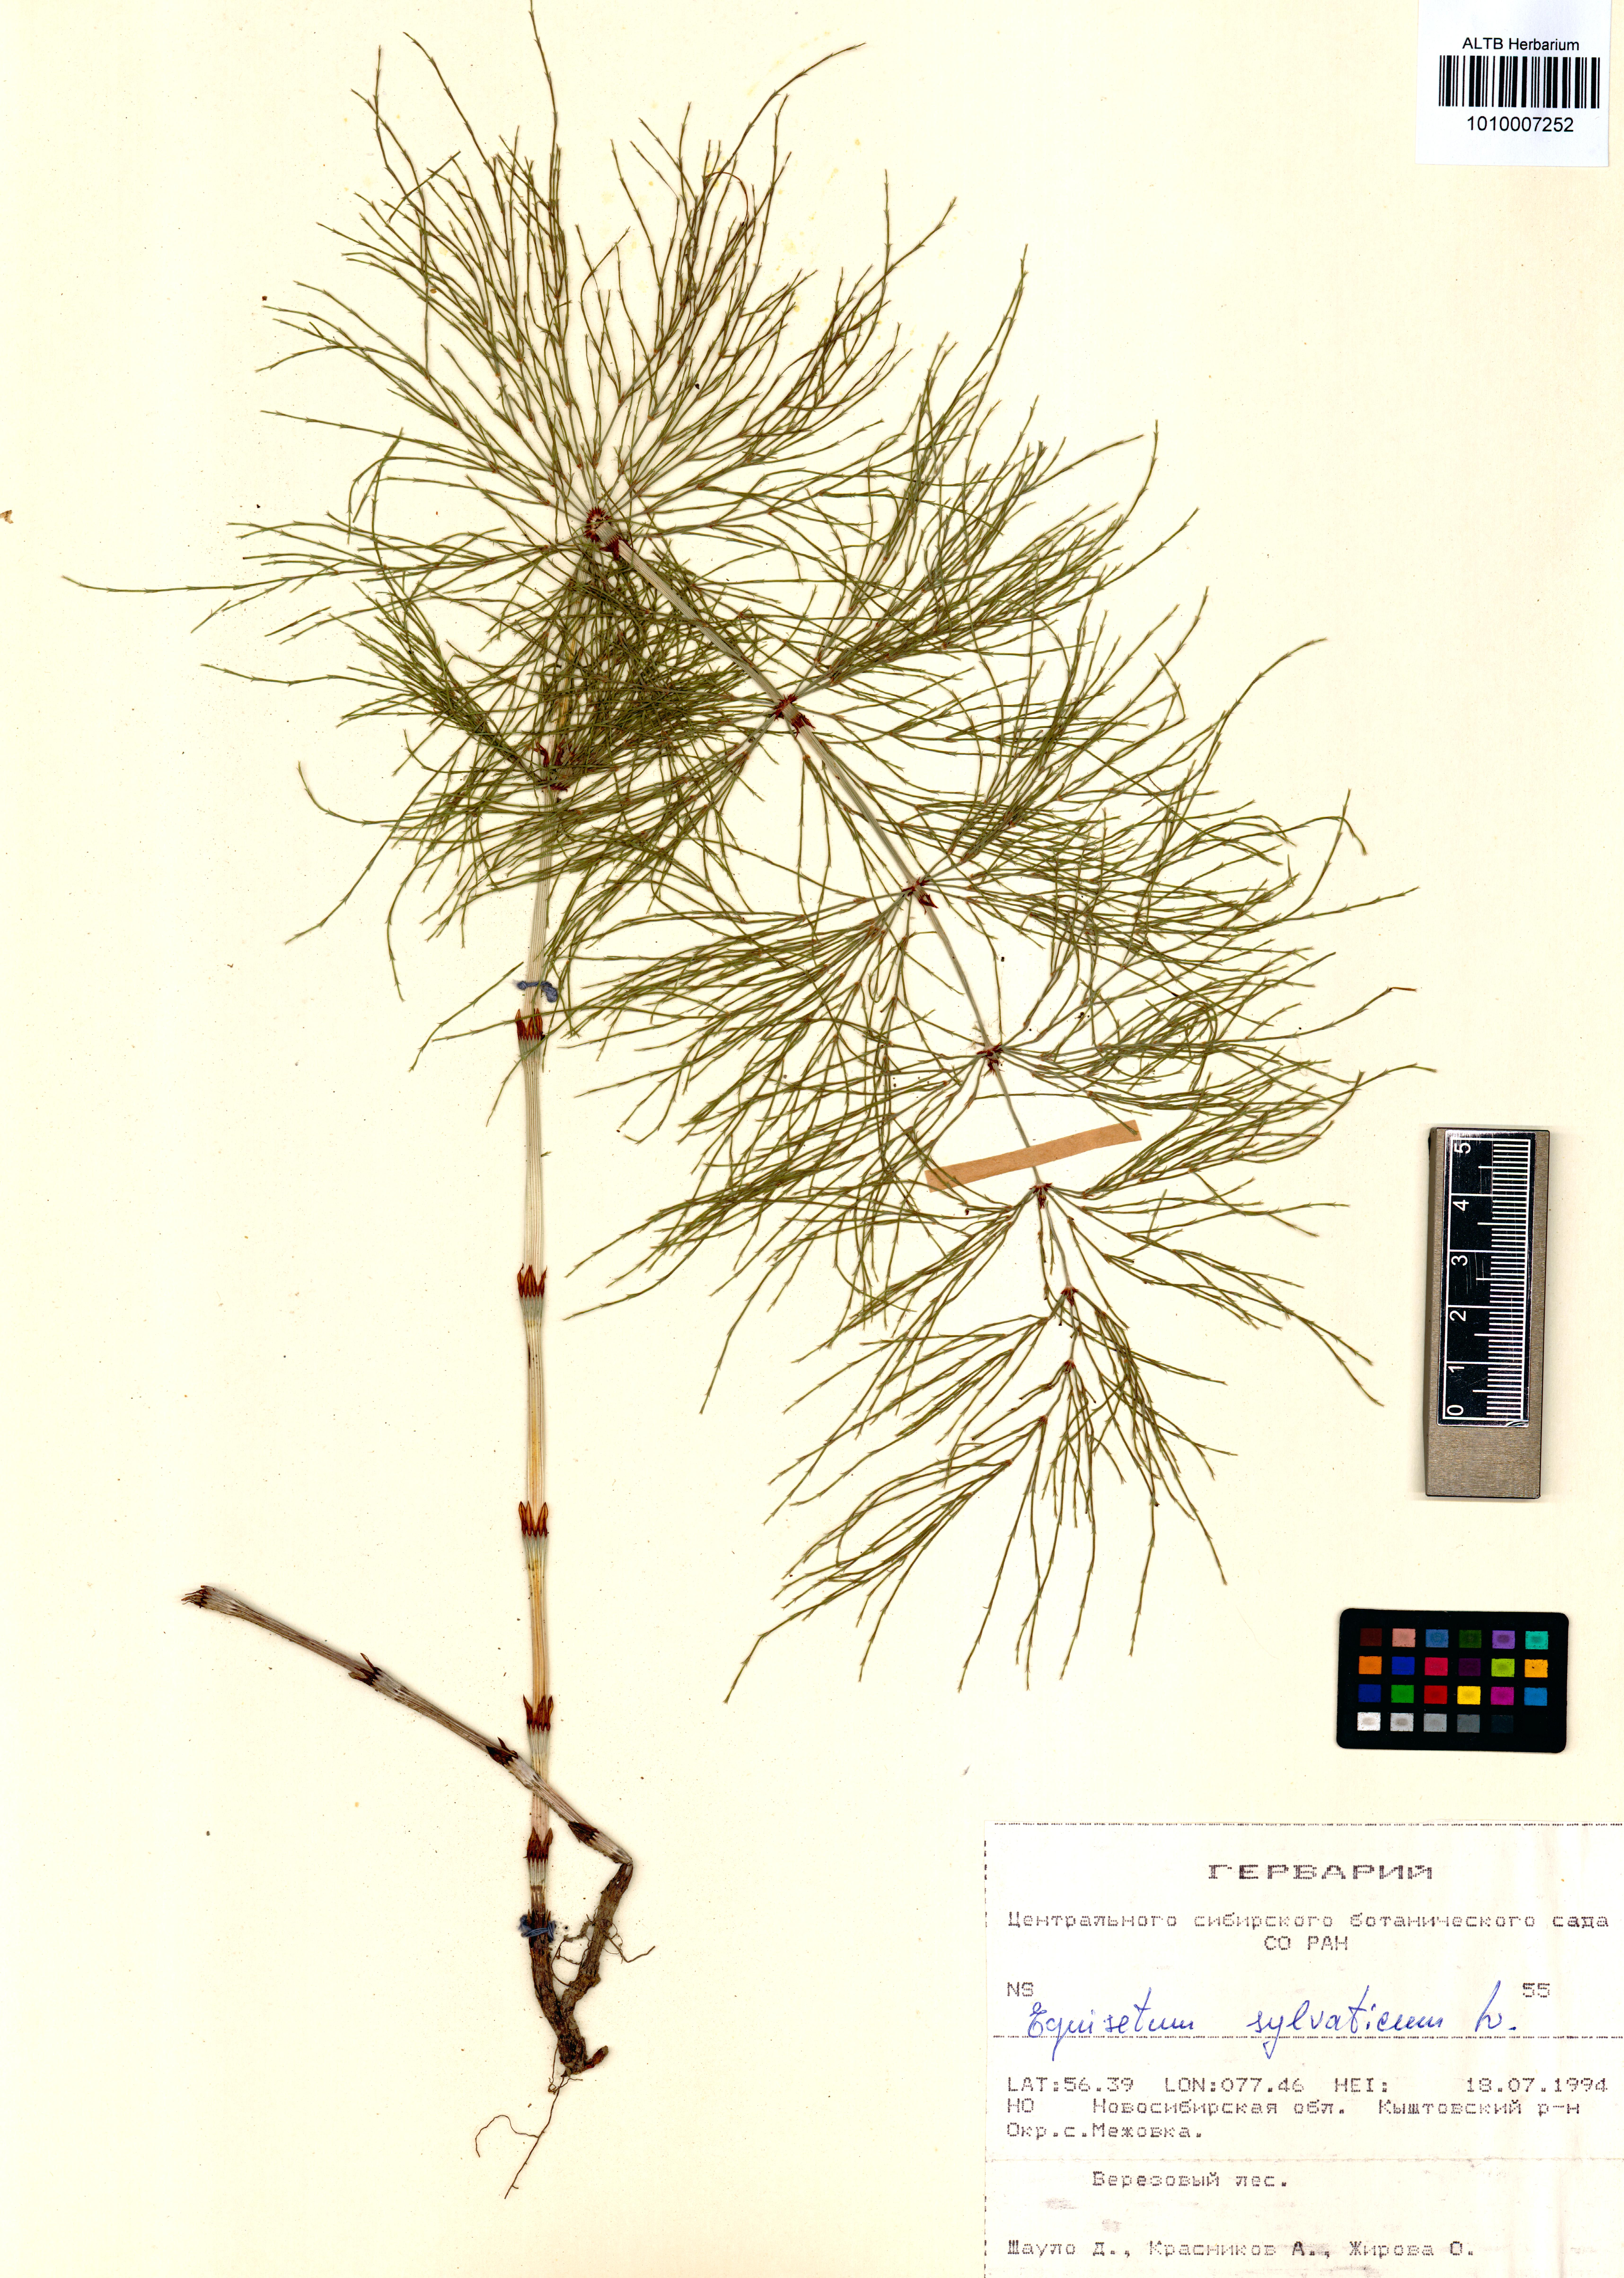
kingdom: Plantae
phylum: Tracheophyta
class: Polypodiopsida
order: Equisetales
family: Equisetaceae
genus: Equisetum
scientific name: Equisetum sylvaticum
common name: Wood horsetail
